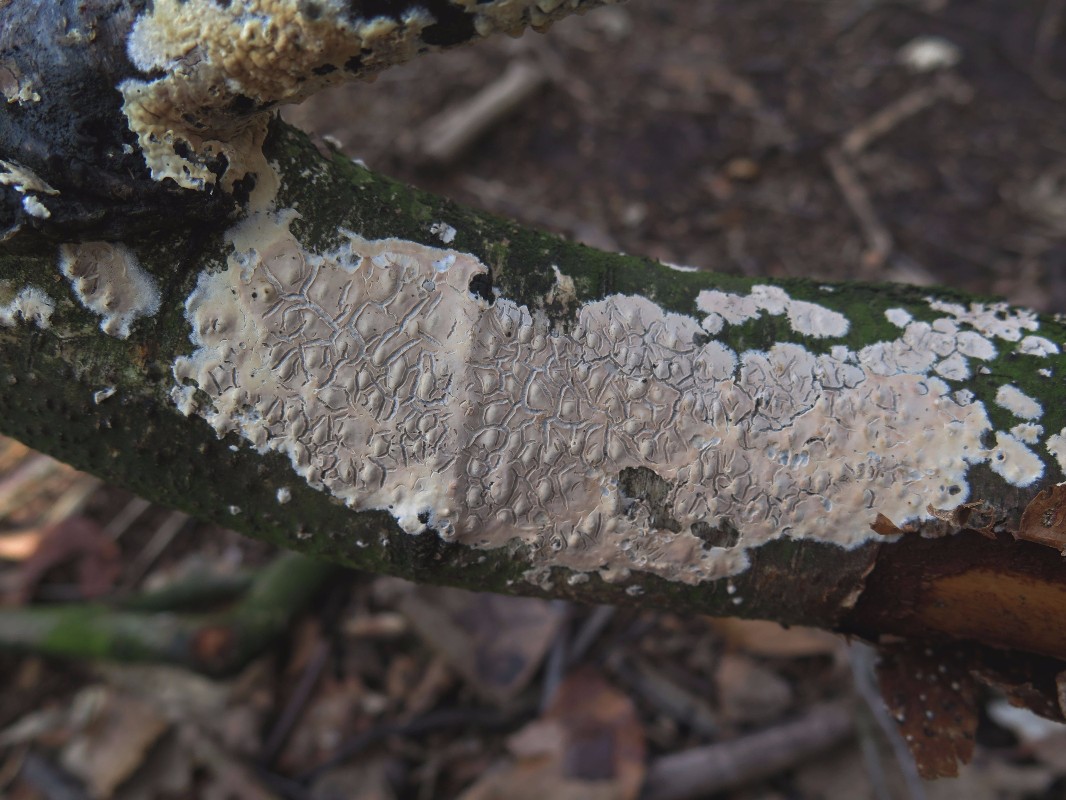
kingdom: Fungi
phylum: Basidiomycota
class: Agaricomycetes
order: Agaricales
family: Physalacriaceae
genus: Cylindrobasidium
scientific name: Cylindrobasidium evolvens
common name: sprækkehinde
